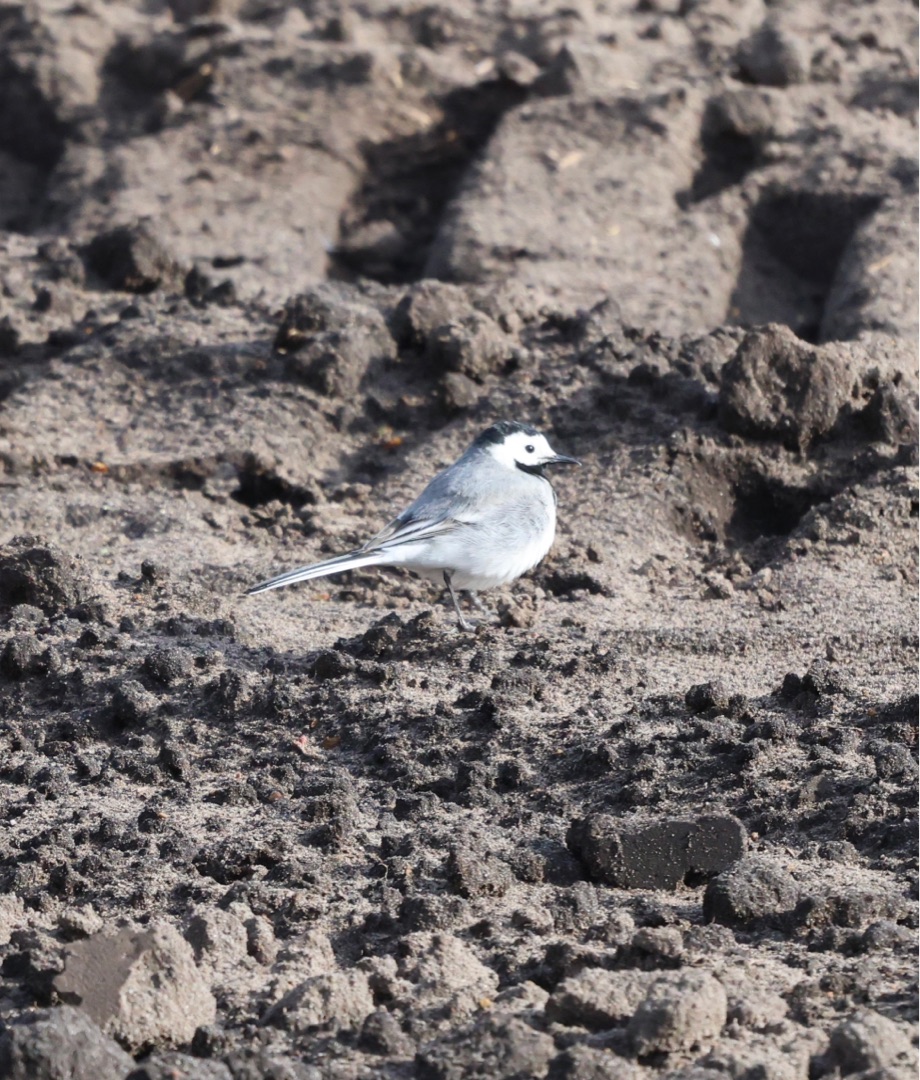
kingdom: Animalia
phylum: Chordata
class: Aves
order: Passeriformes
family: Motacillidae
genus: Motacilla
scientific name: Motacilla alba
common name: Hvid vipstjert
